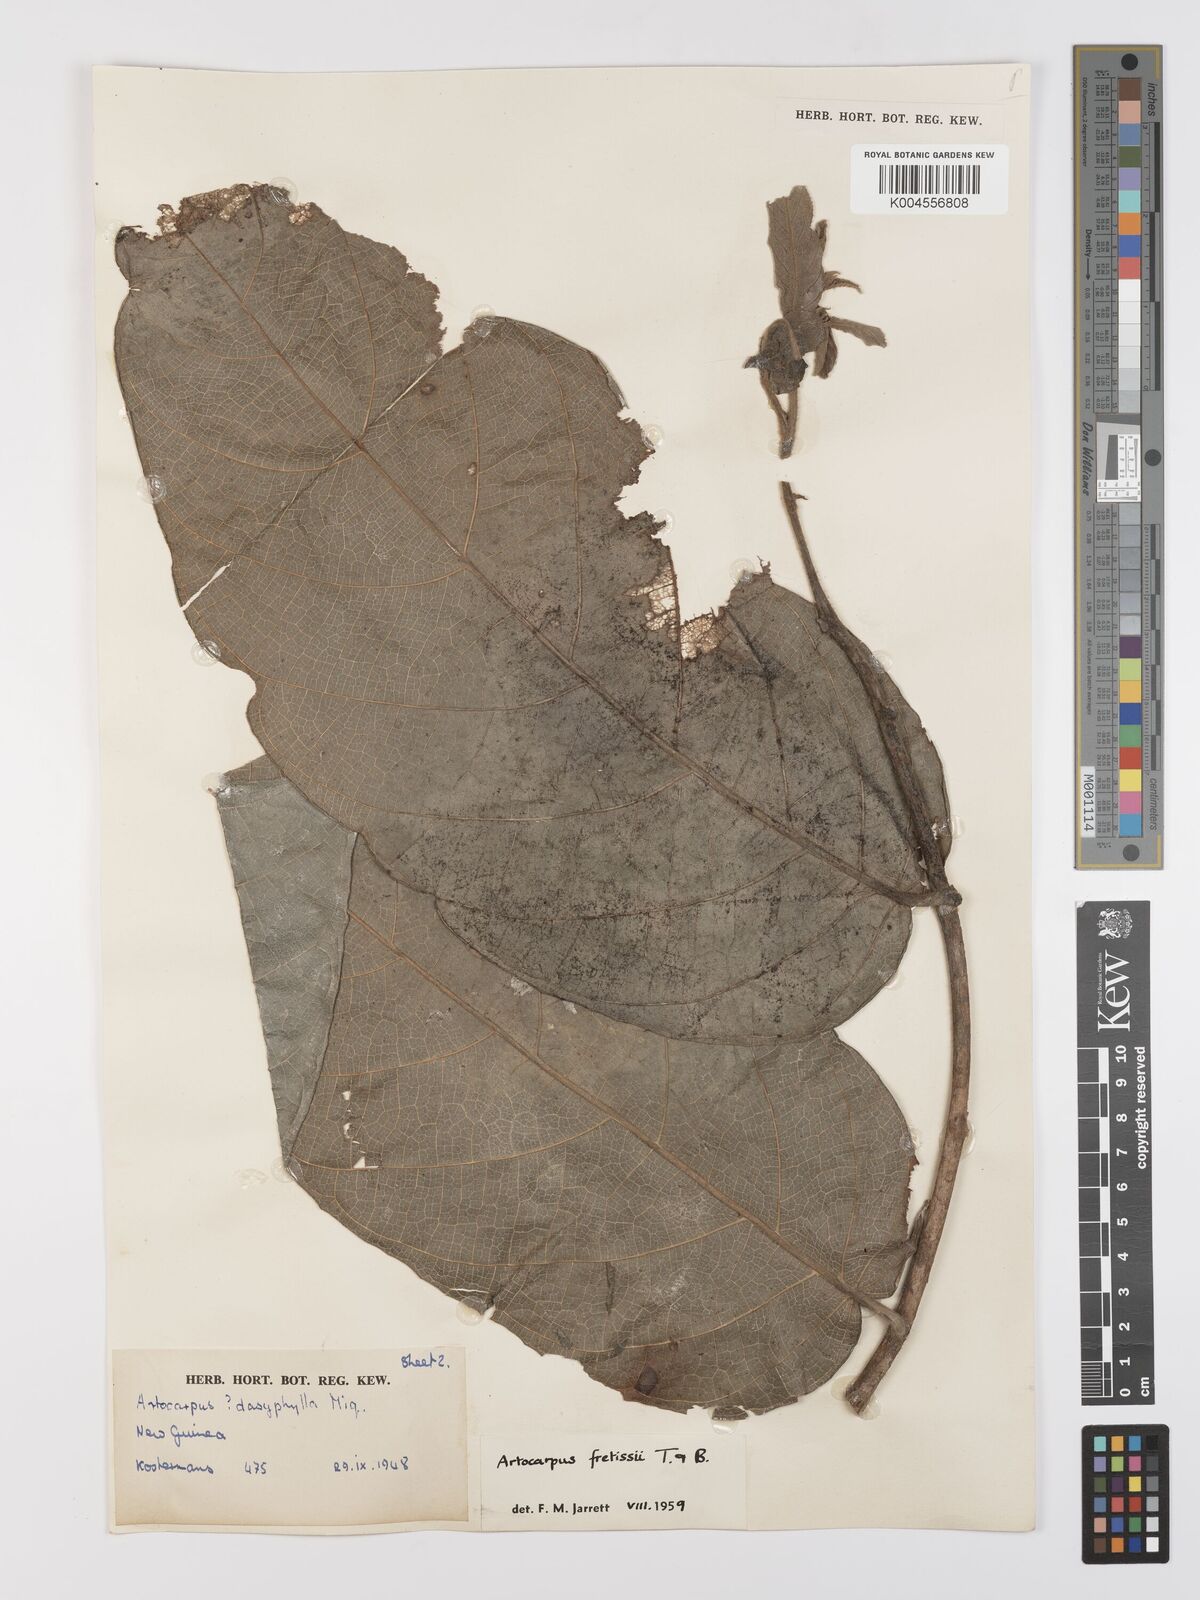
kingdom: Plantae
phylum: Tracheophyta
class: Magnoliopsida
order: Rosales
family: Moraceae
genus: Artocarpus
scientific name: Artocarpus lacucha
